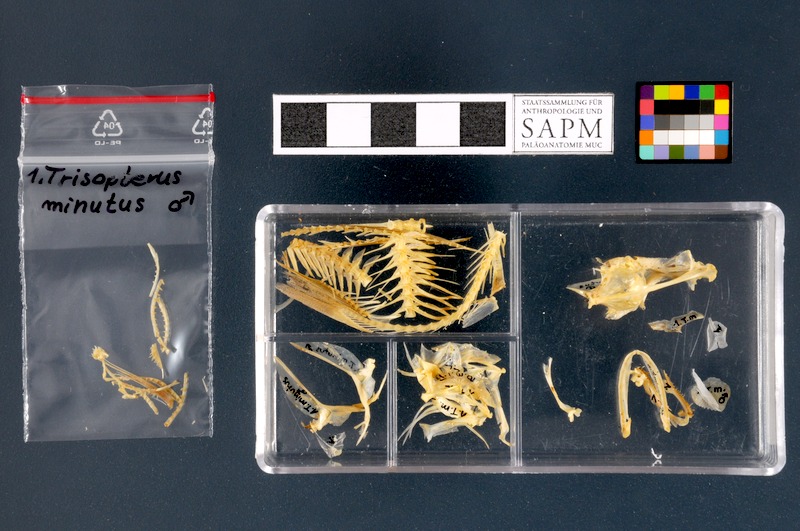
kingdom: Animalia
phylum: Chordata
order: Gadiformes
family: Gadidae
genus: Trisopterus
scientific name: Trisopterus minutus
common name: Poor cod
